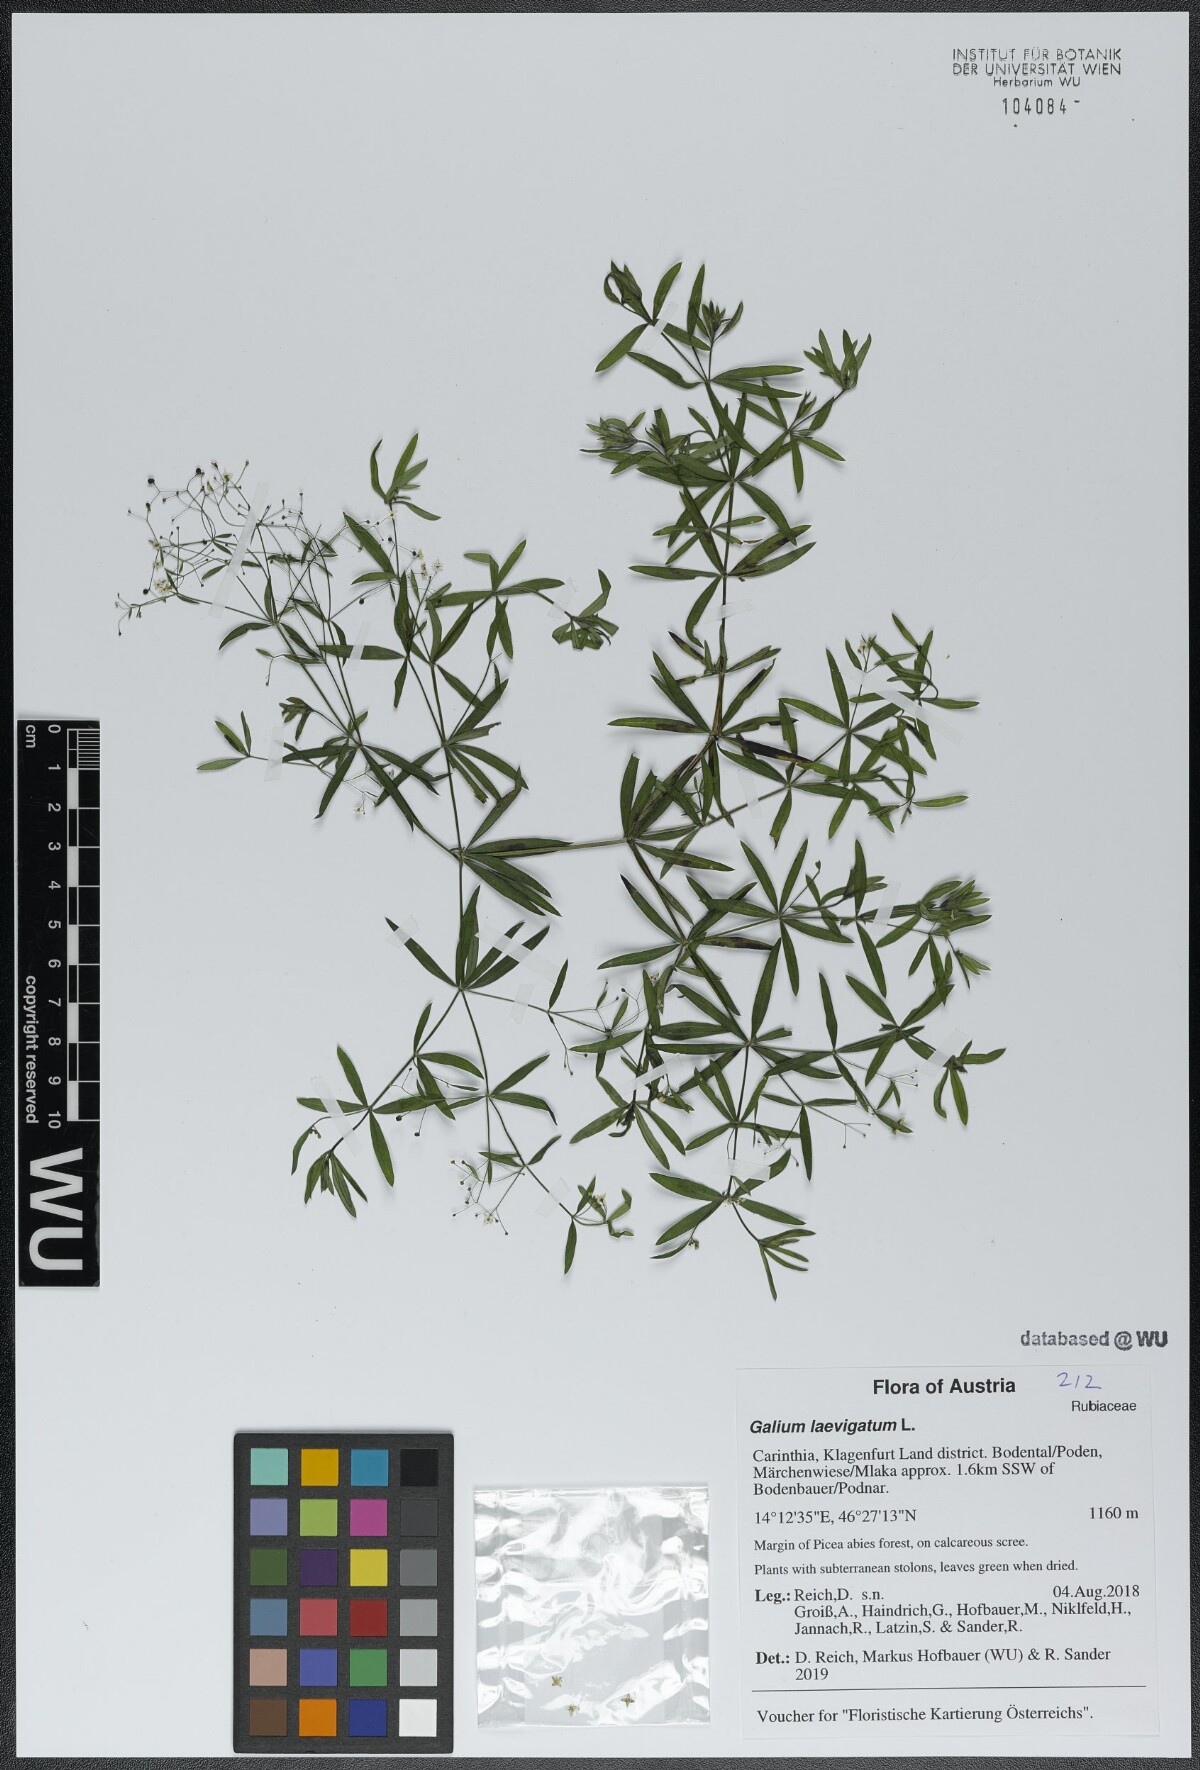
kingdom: Plantae
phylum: Tracheophyta
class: Magnoliopsida
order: Gentianales
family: Rubiaceae
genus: Galium
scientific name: Galium laevigatum
